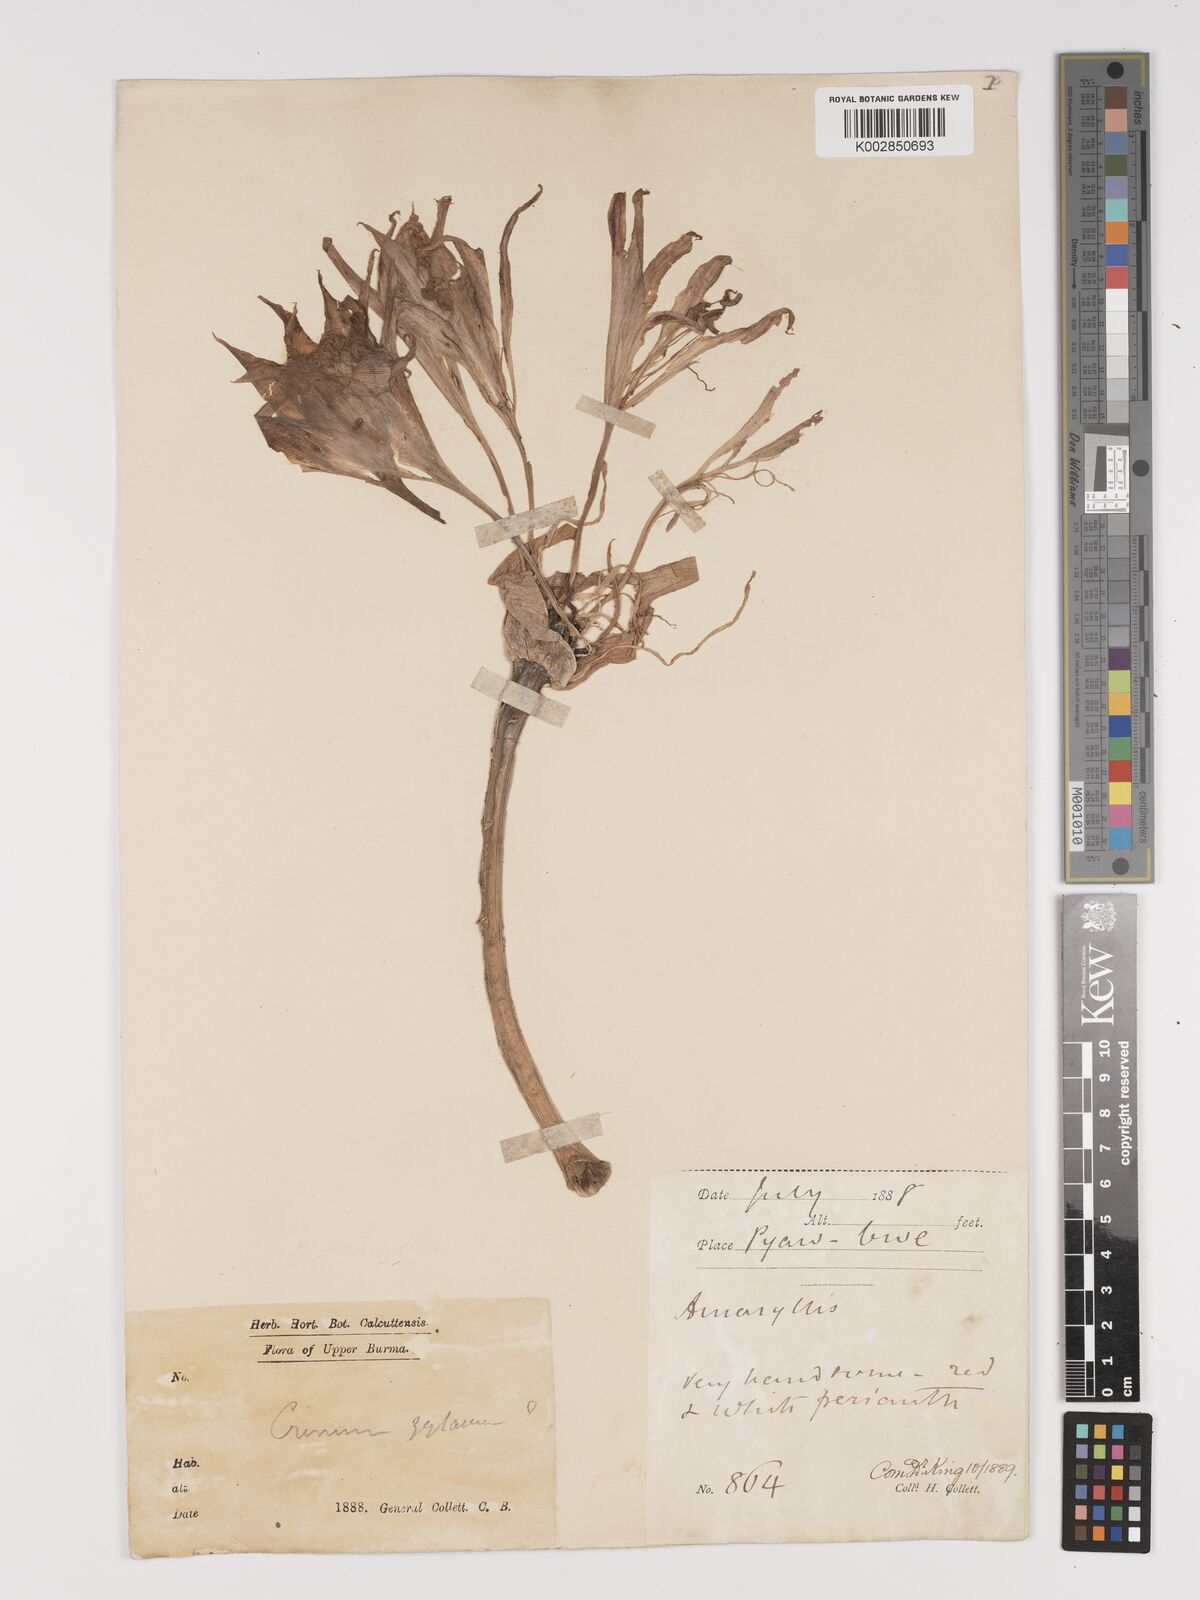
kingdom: Plantae
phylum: Tracheophyta
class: Liliopsida
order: Asparagales
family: Amaryllidaceae
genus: Crinum
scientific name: Crinum zeylanicum
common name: Ceylon swamplily
